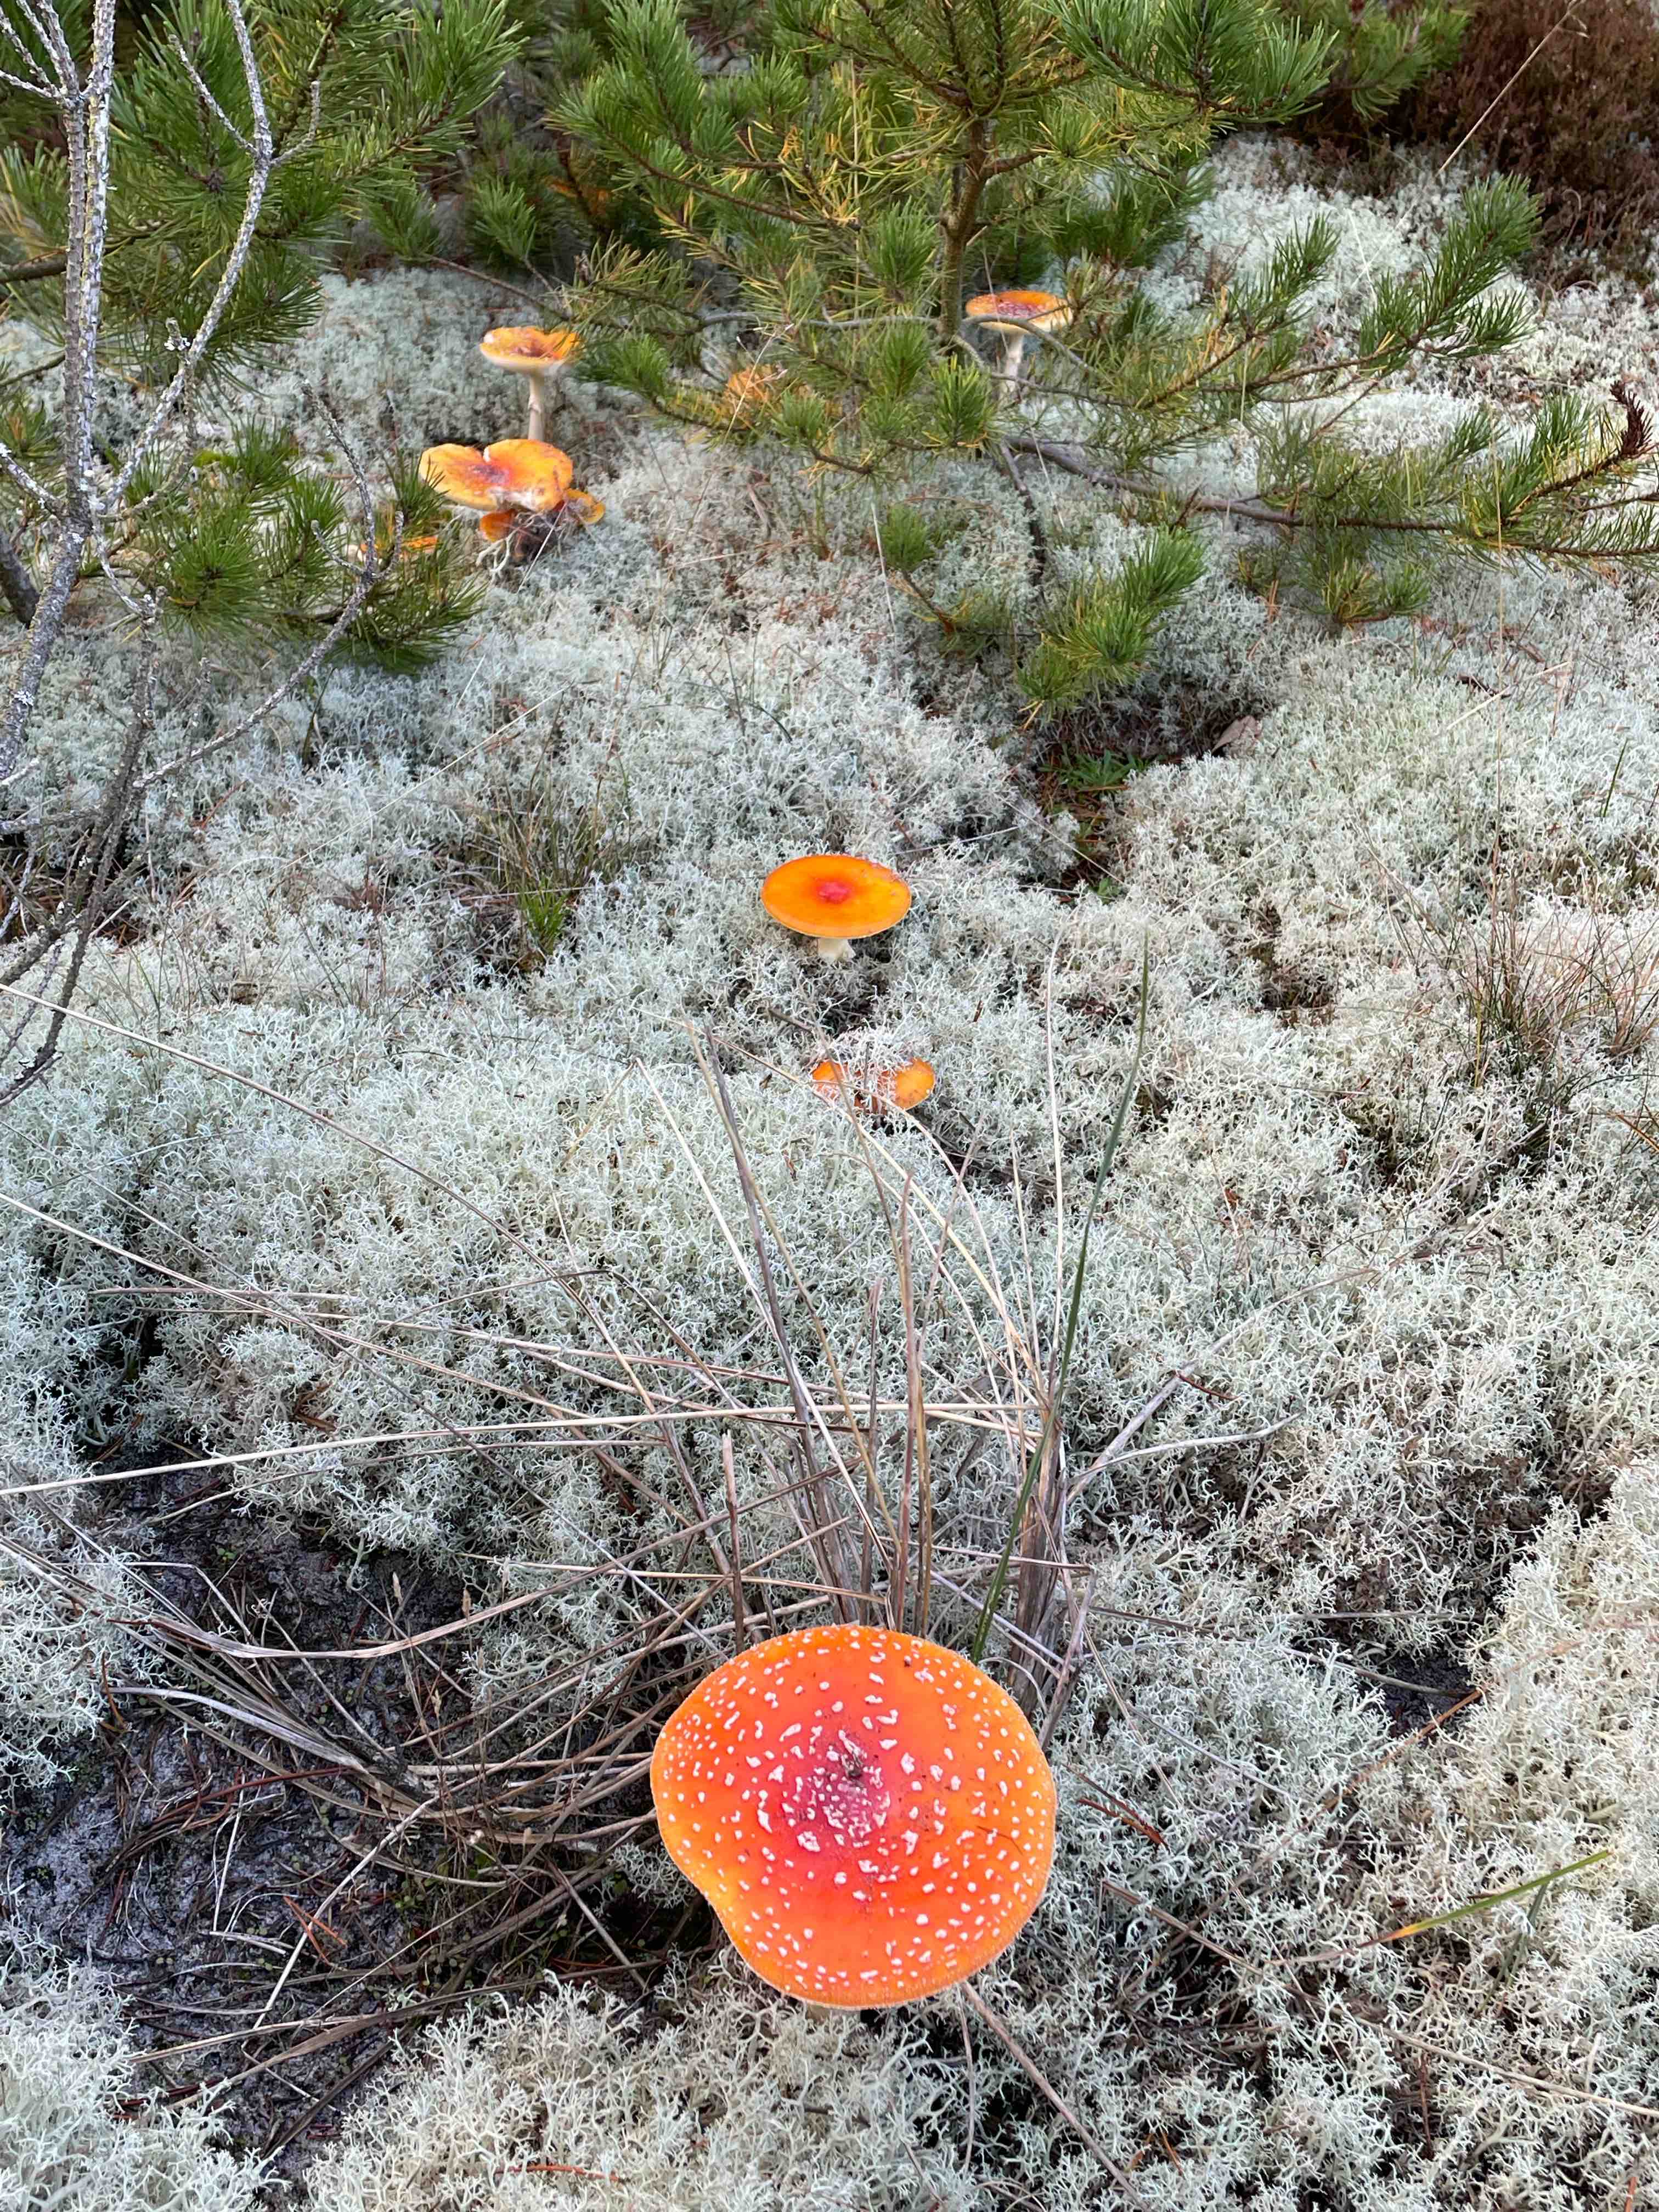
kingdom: Fungi
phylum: Basidiomycota
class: Agaricomycetes
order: Agaricales
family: Amanitaceae
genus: Amanita
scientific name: Amanita muscaria
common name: rød fluesvamp
